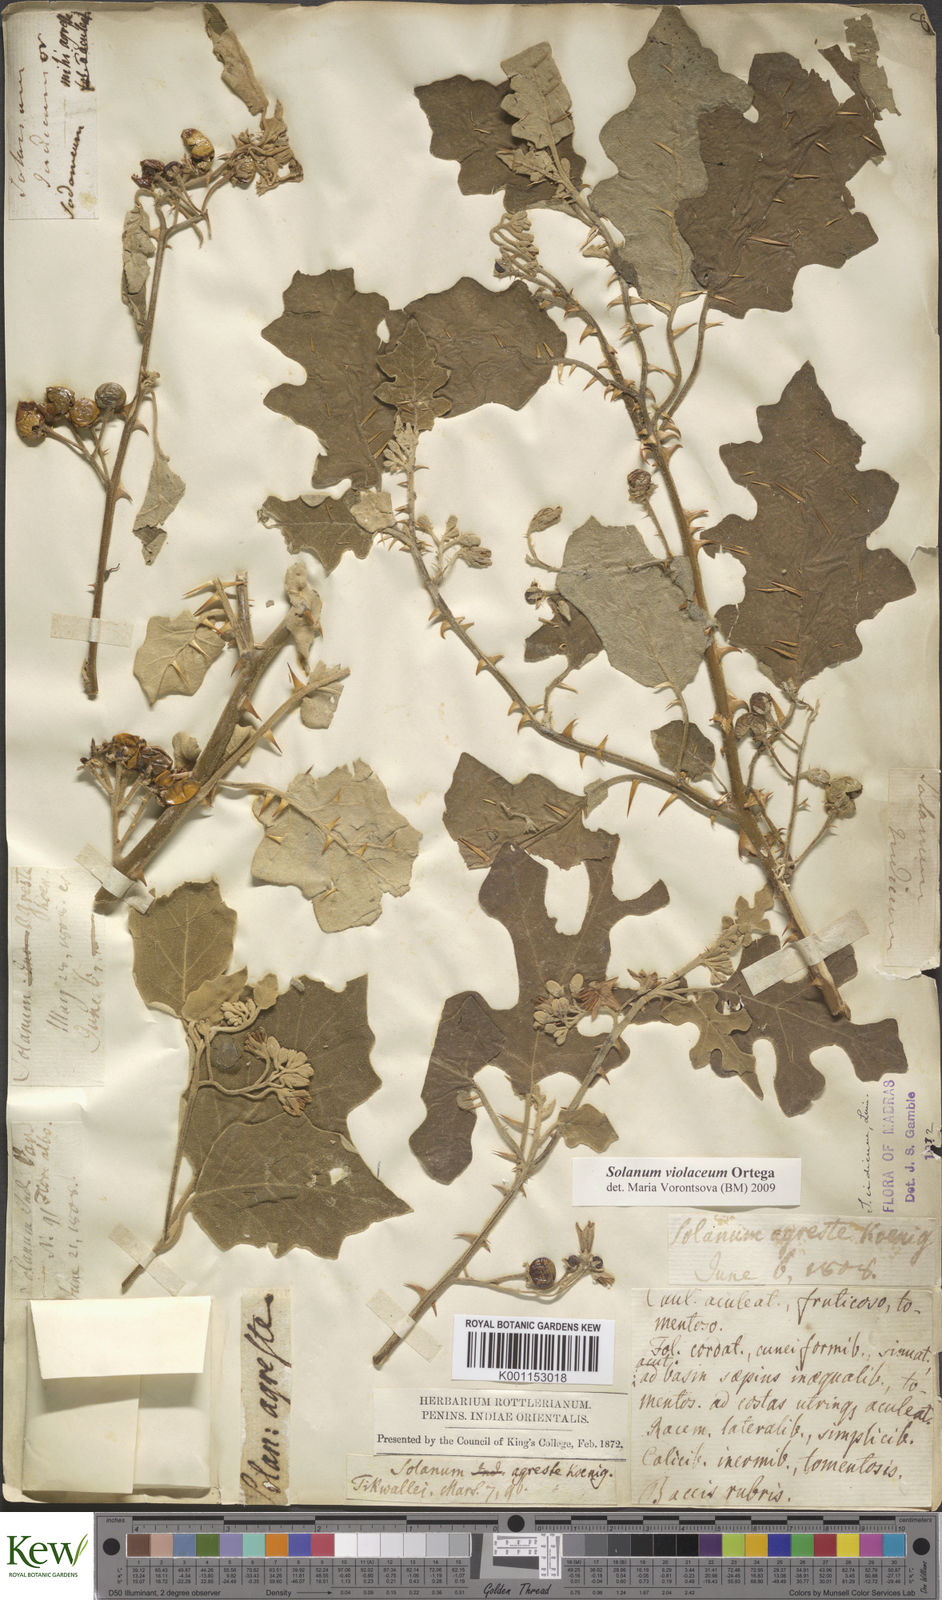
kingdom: Plantae
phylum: Tracheophyta
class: Magnoliopsida
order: Solanales
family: Solanaceae
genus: Solanum
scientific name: Solanum violaceum
